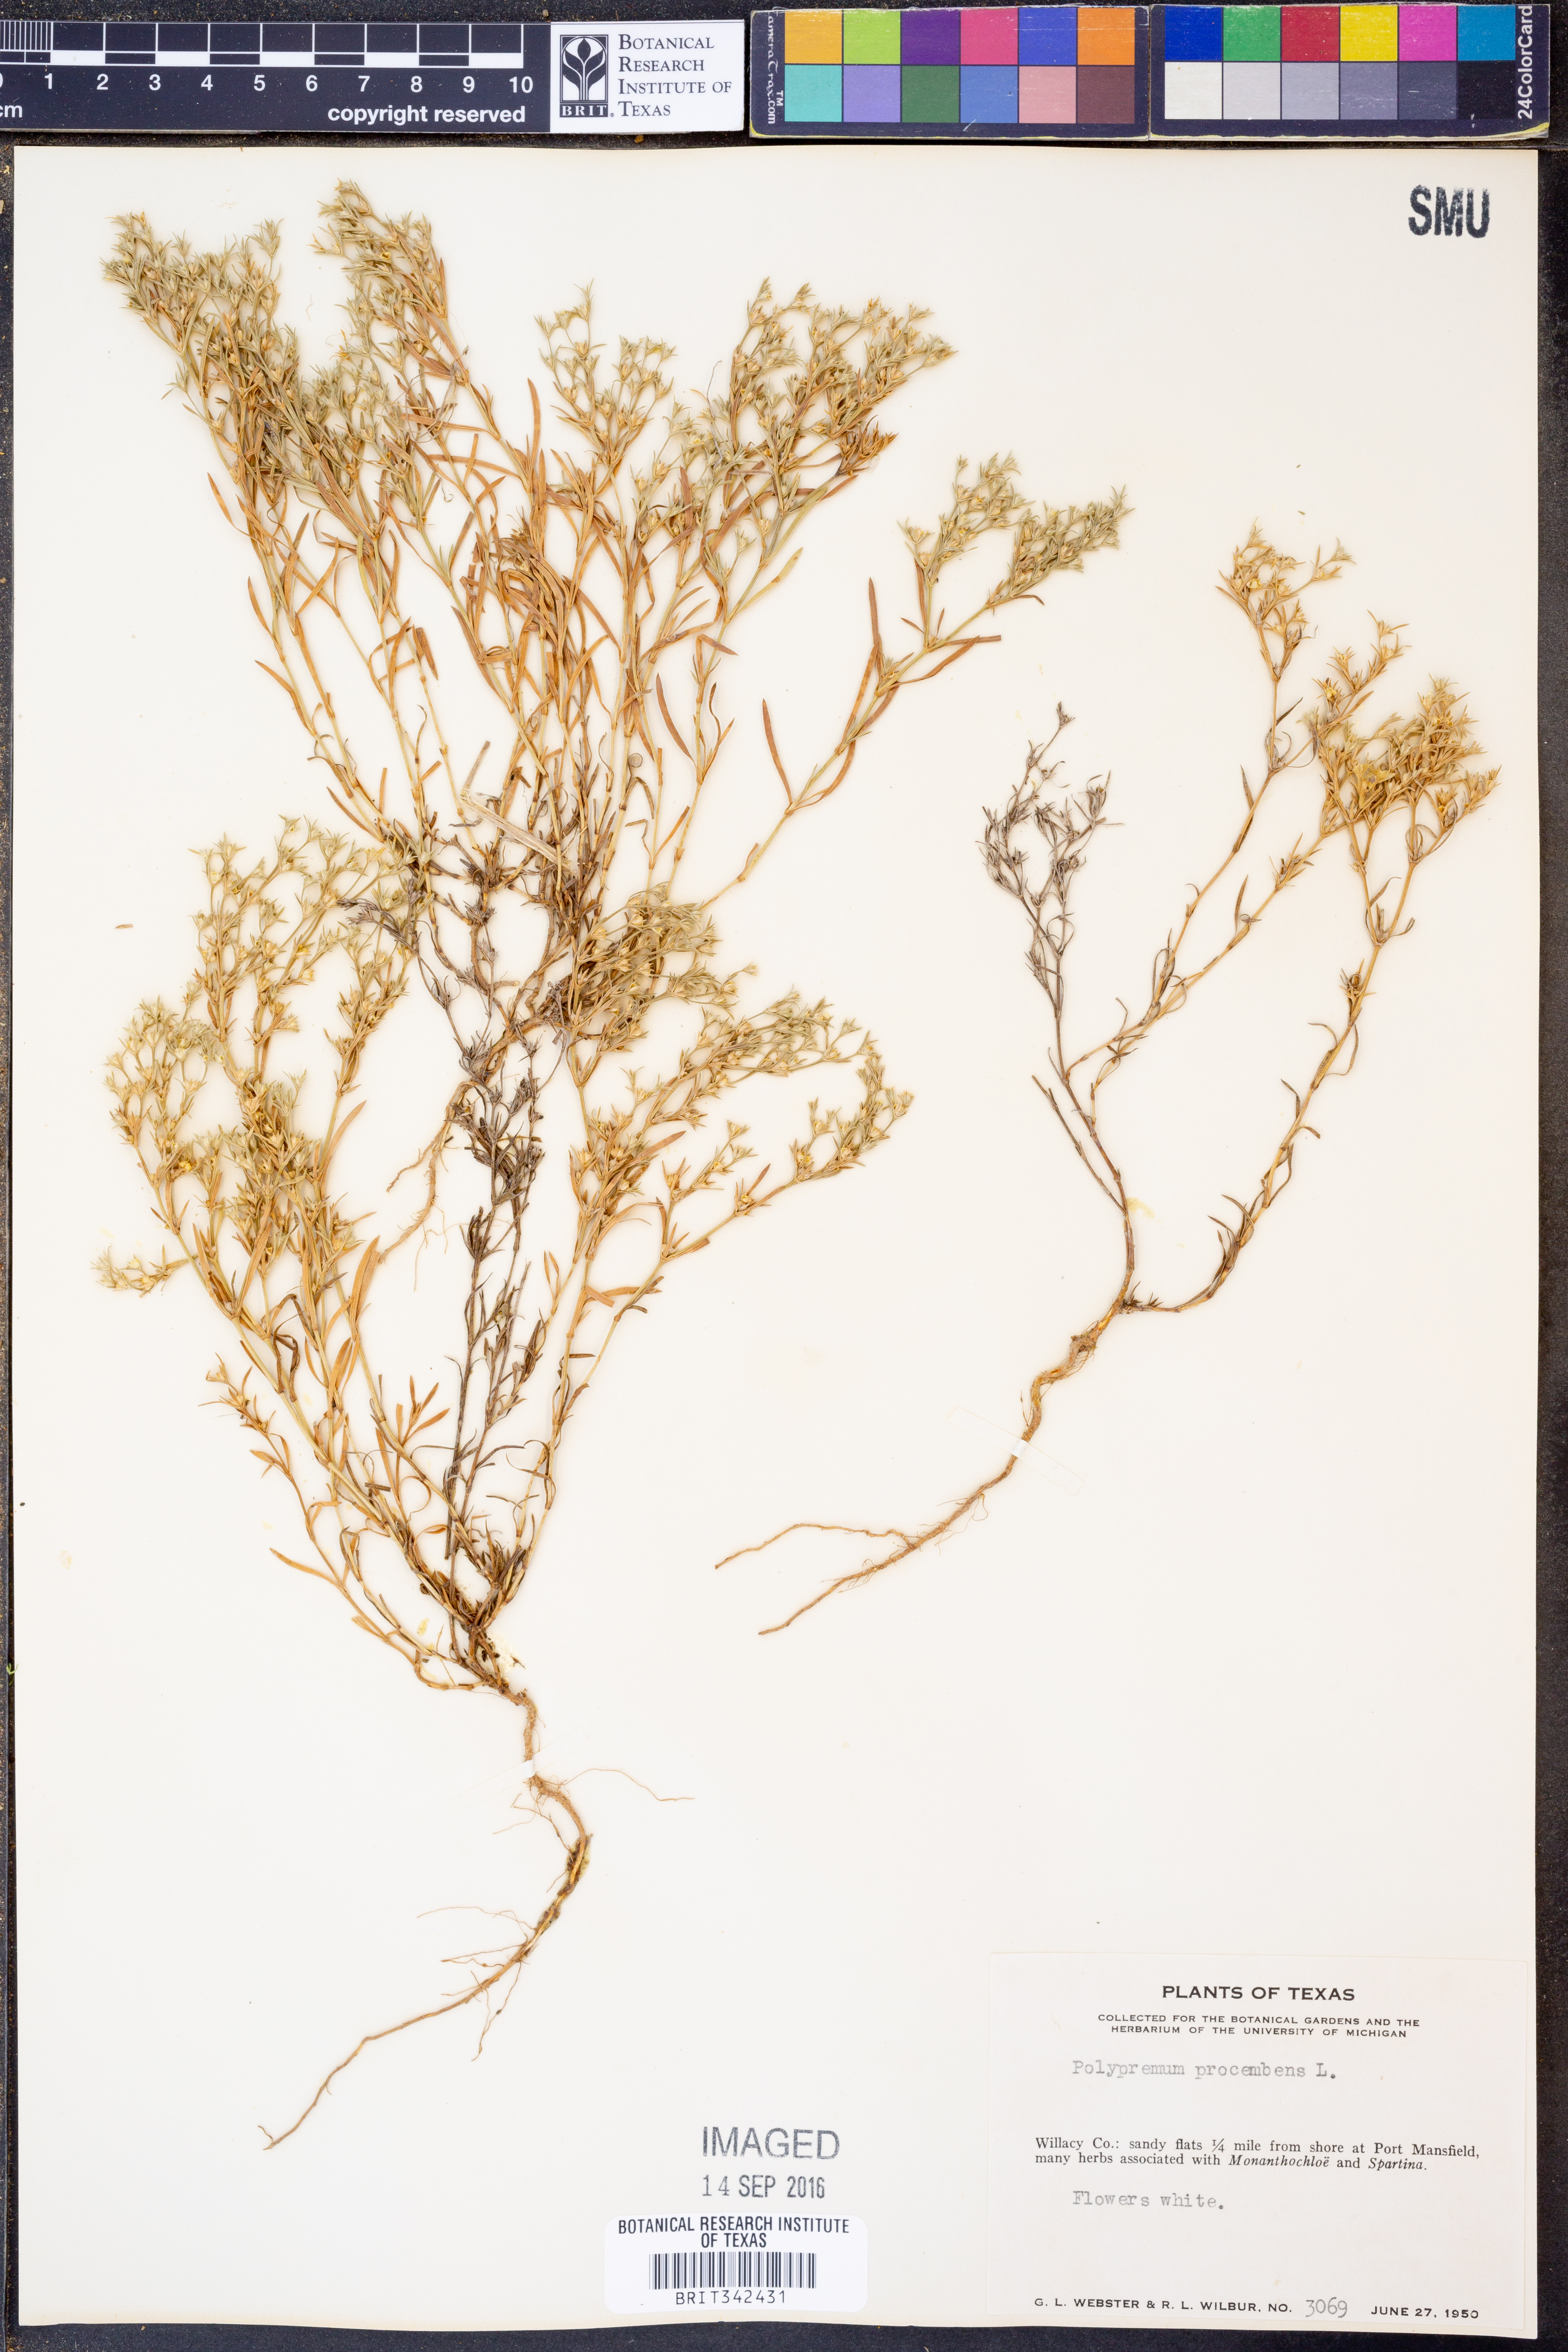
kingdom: Plantae
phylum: Tracheophyta
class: Magnoliopsida
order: Lamiales
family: Tetrachondraceae
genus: Polypremum
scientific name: Polypremum procumbens
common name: Juniper-leaf
